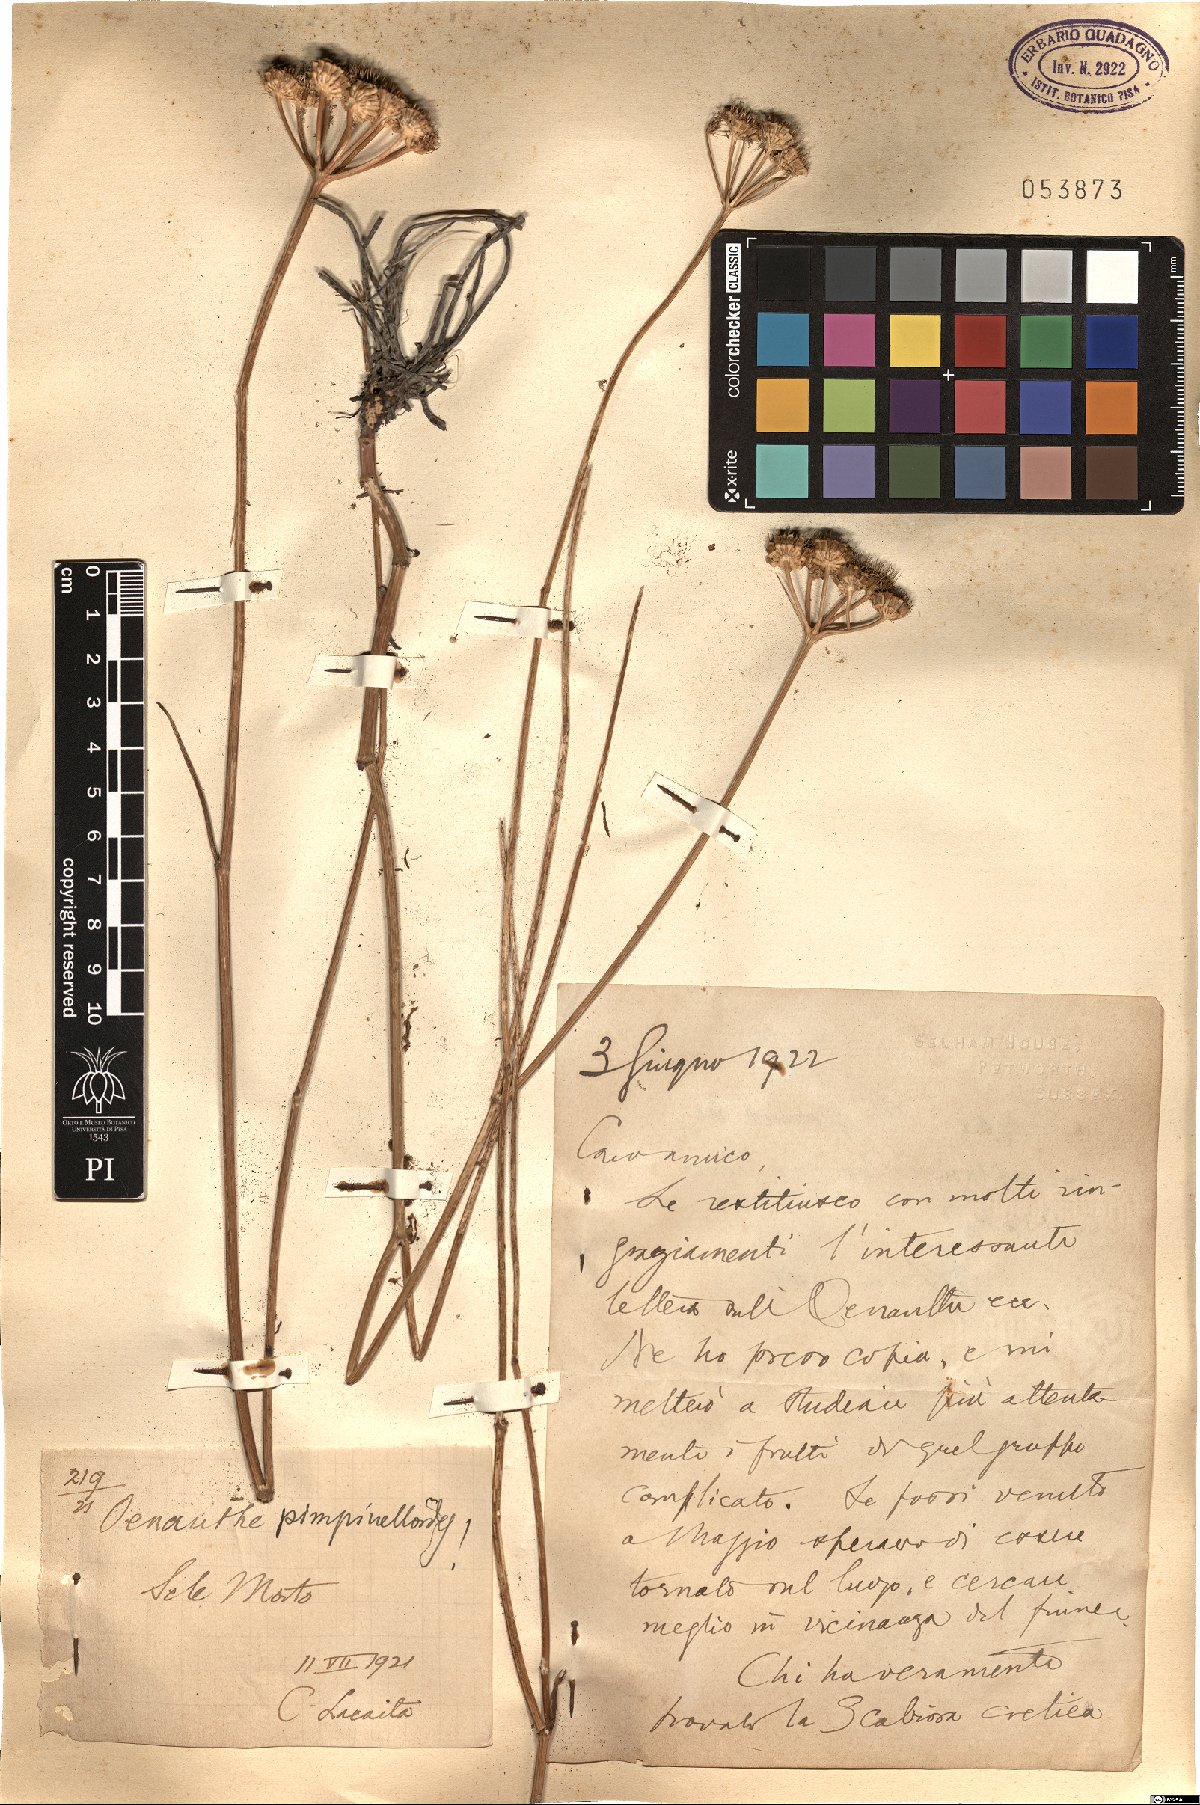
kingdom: Plantae
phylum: Tracheophyta
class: Magnoliopsida
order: Apiales
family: Apiaceae
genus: Oenanthe
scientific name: Oenanthe pimpinelloides
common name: Corky-fruited water-dropwort
